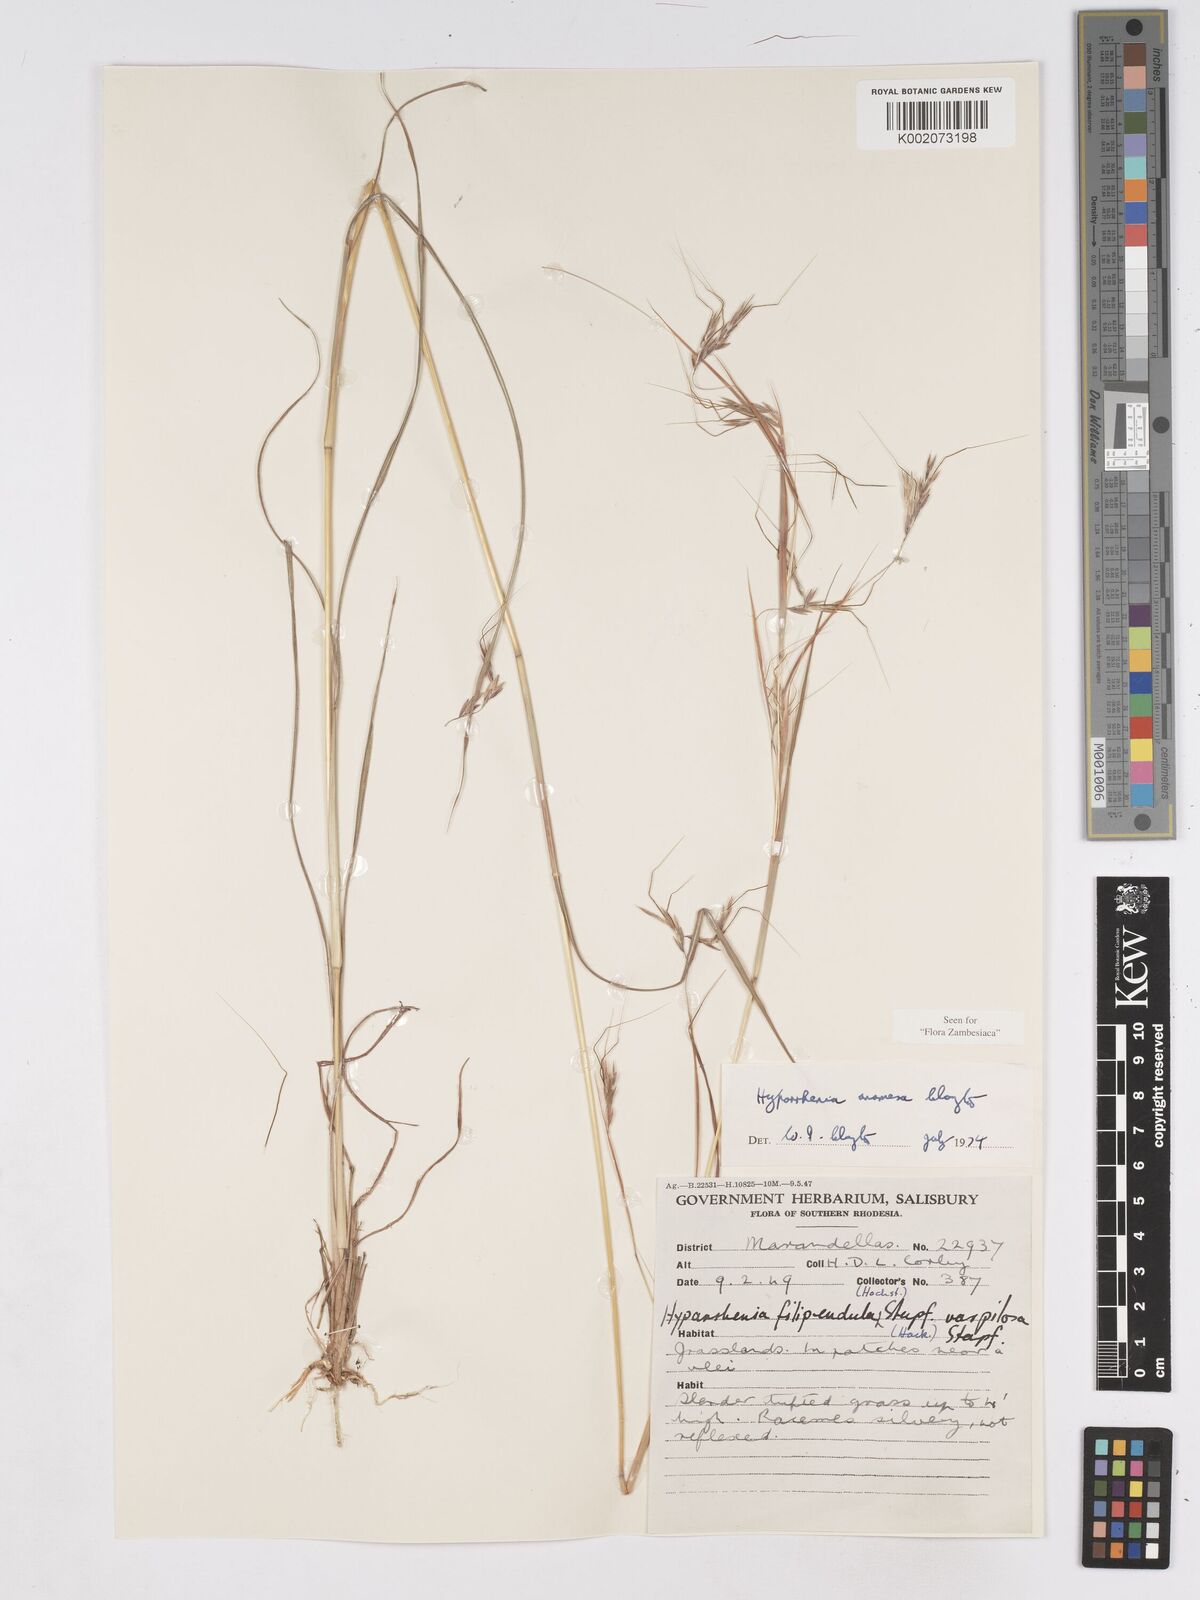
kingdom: Plantae
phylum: Tracheophyta
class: Liliopsida
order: Poales
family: Poaceae
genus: Hyparrhenia
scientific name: Hyparrhenia anamesa
